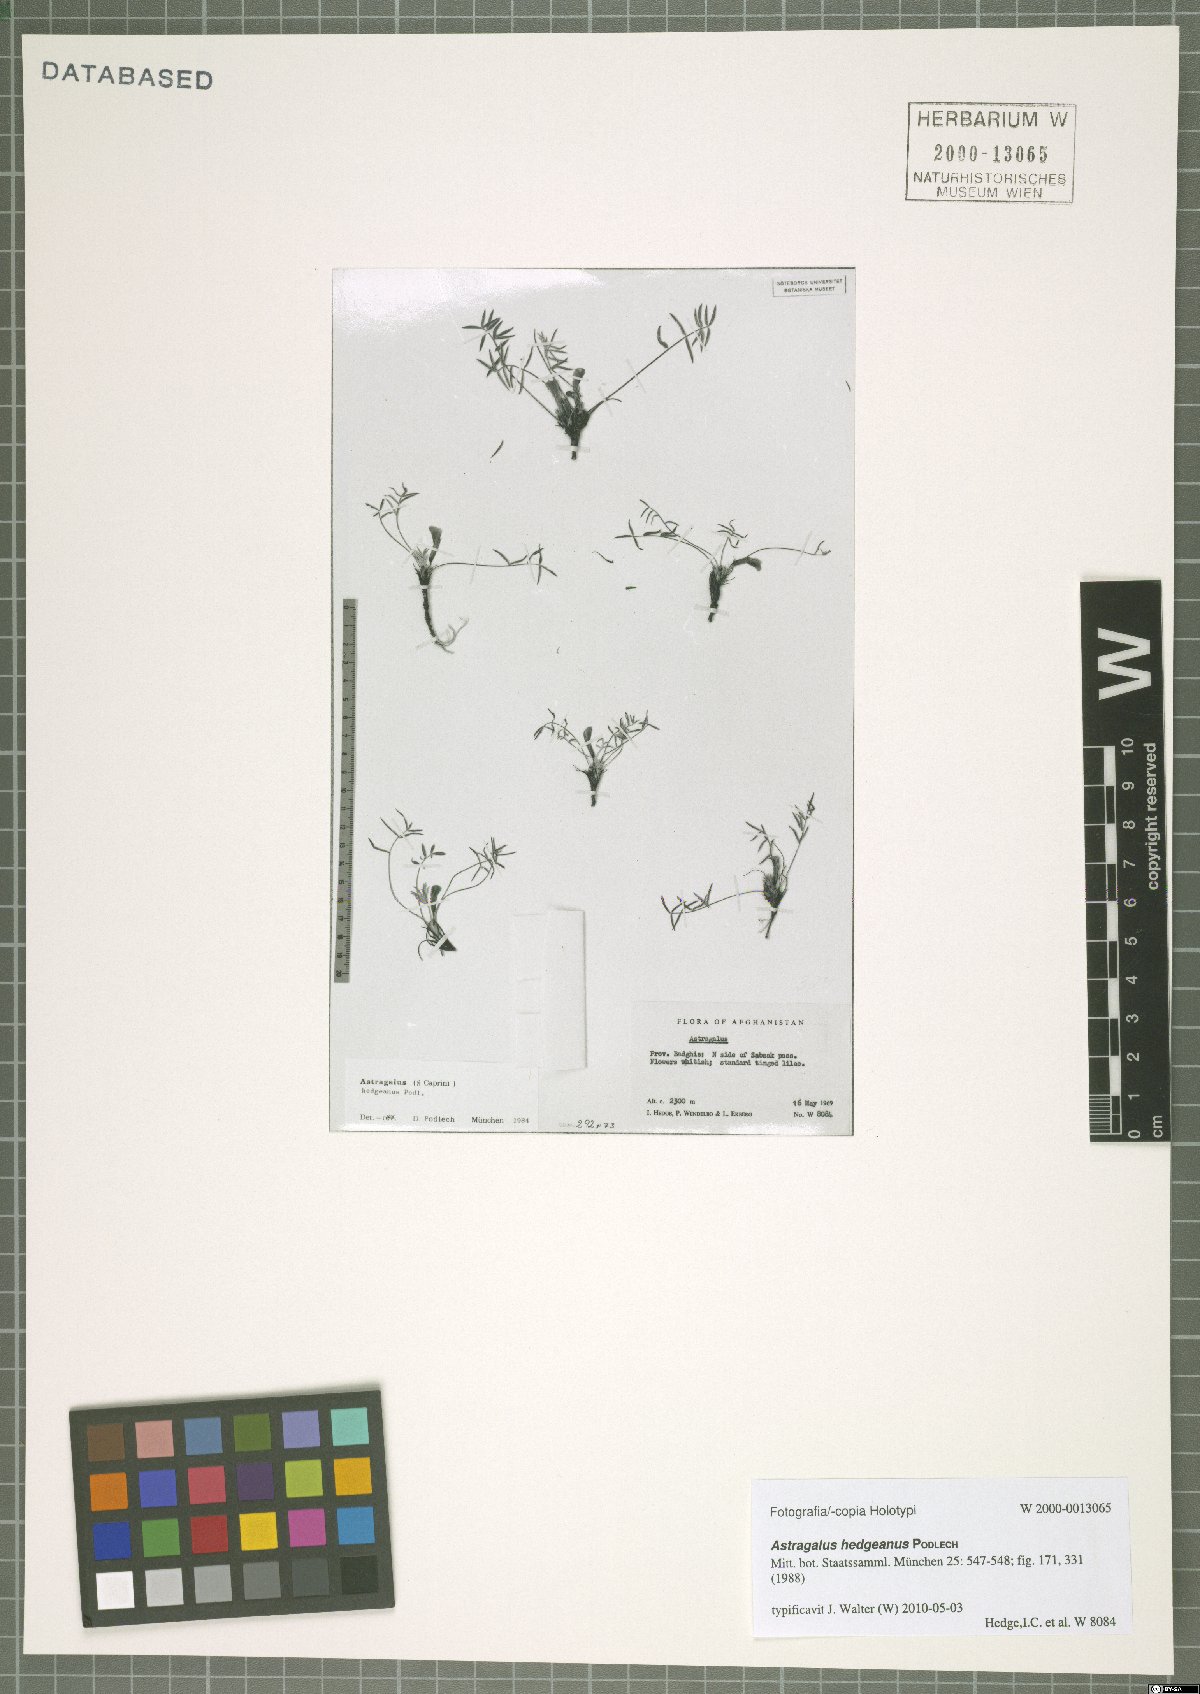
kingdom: Plantae
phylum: Tracheophyta
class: Magnoliopsida
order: Fabales
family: Fabaceae
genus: Astragalus
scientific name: Astragalus hedgeanus
